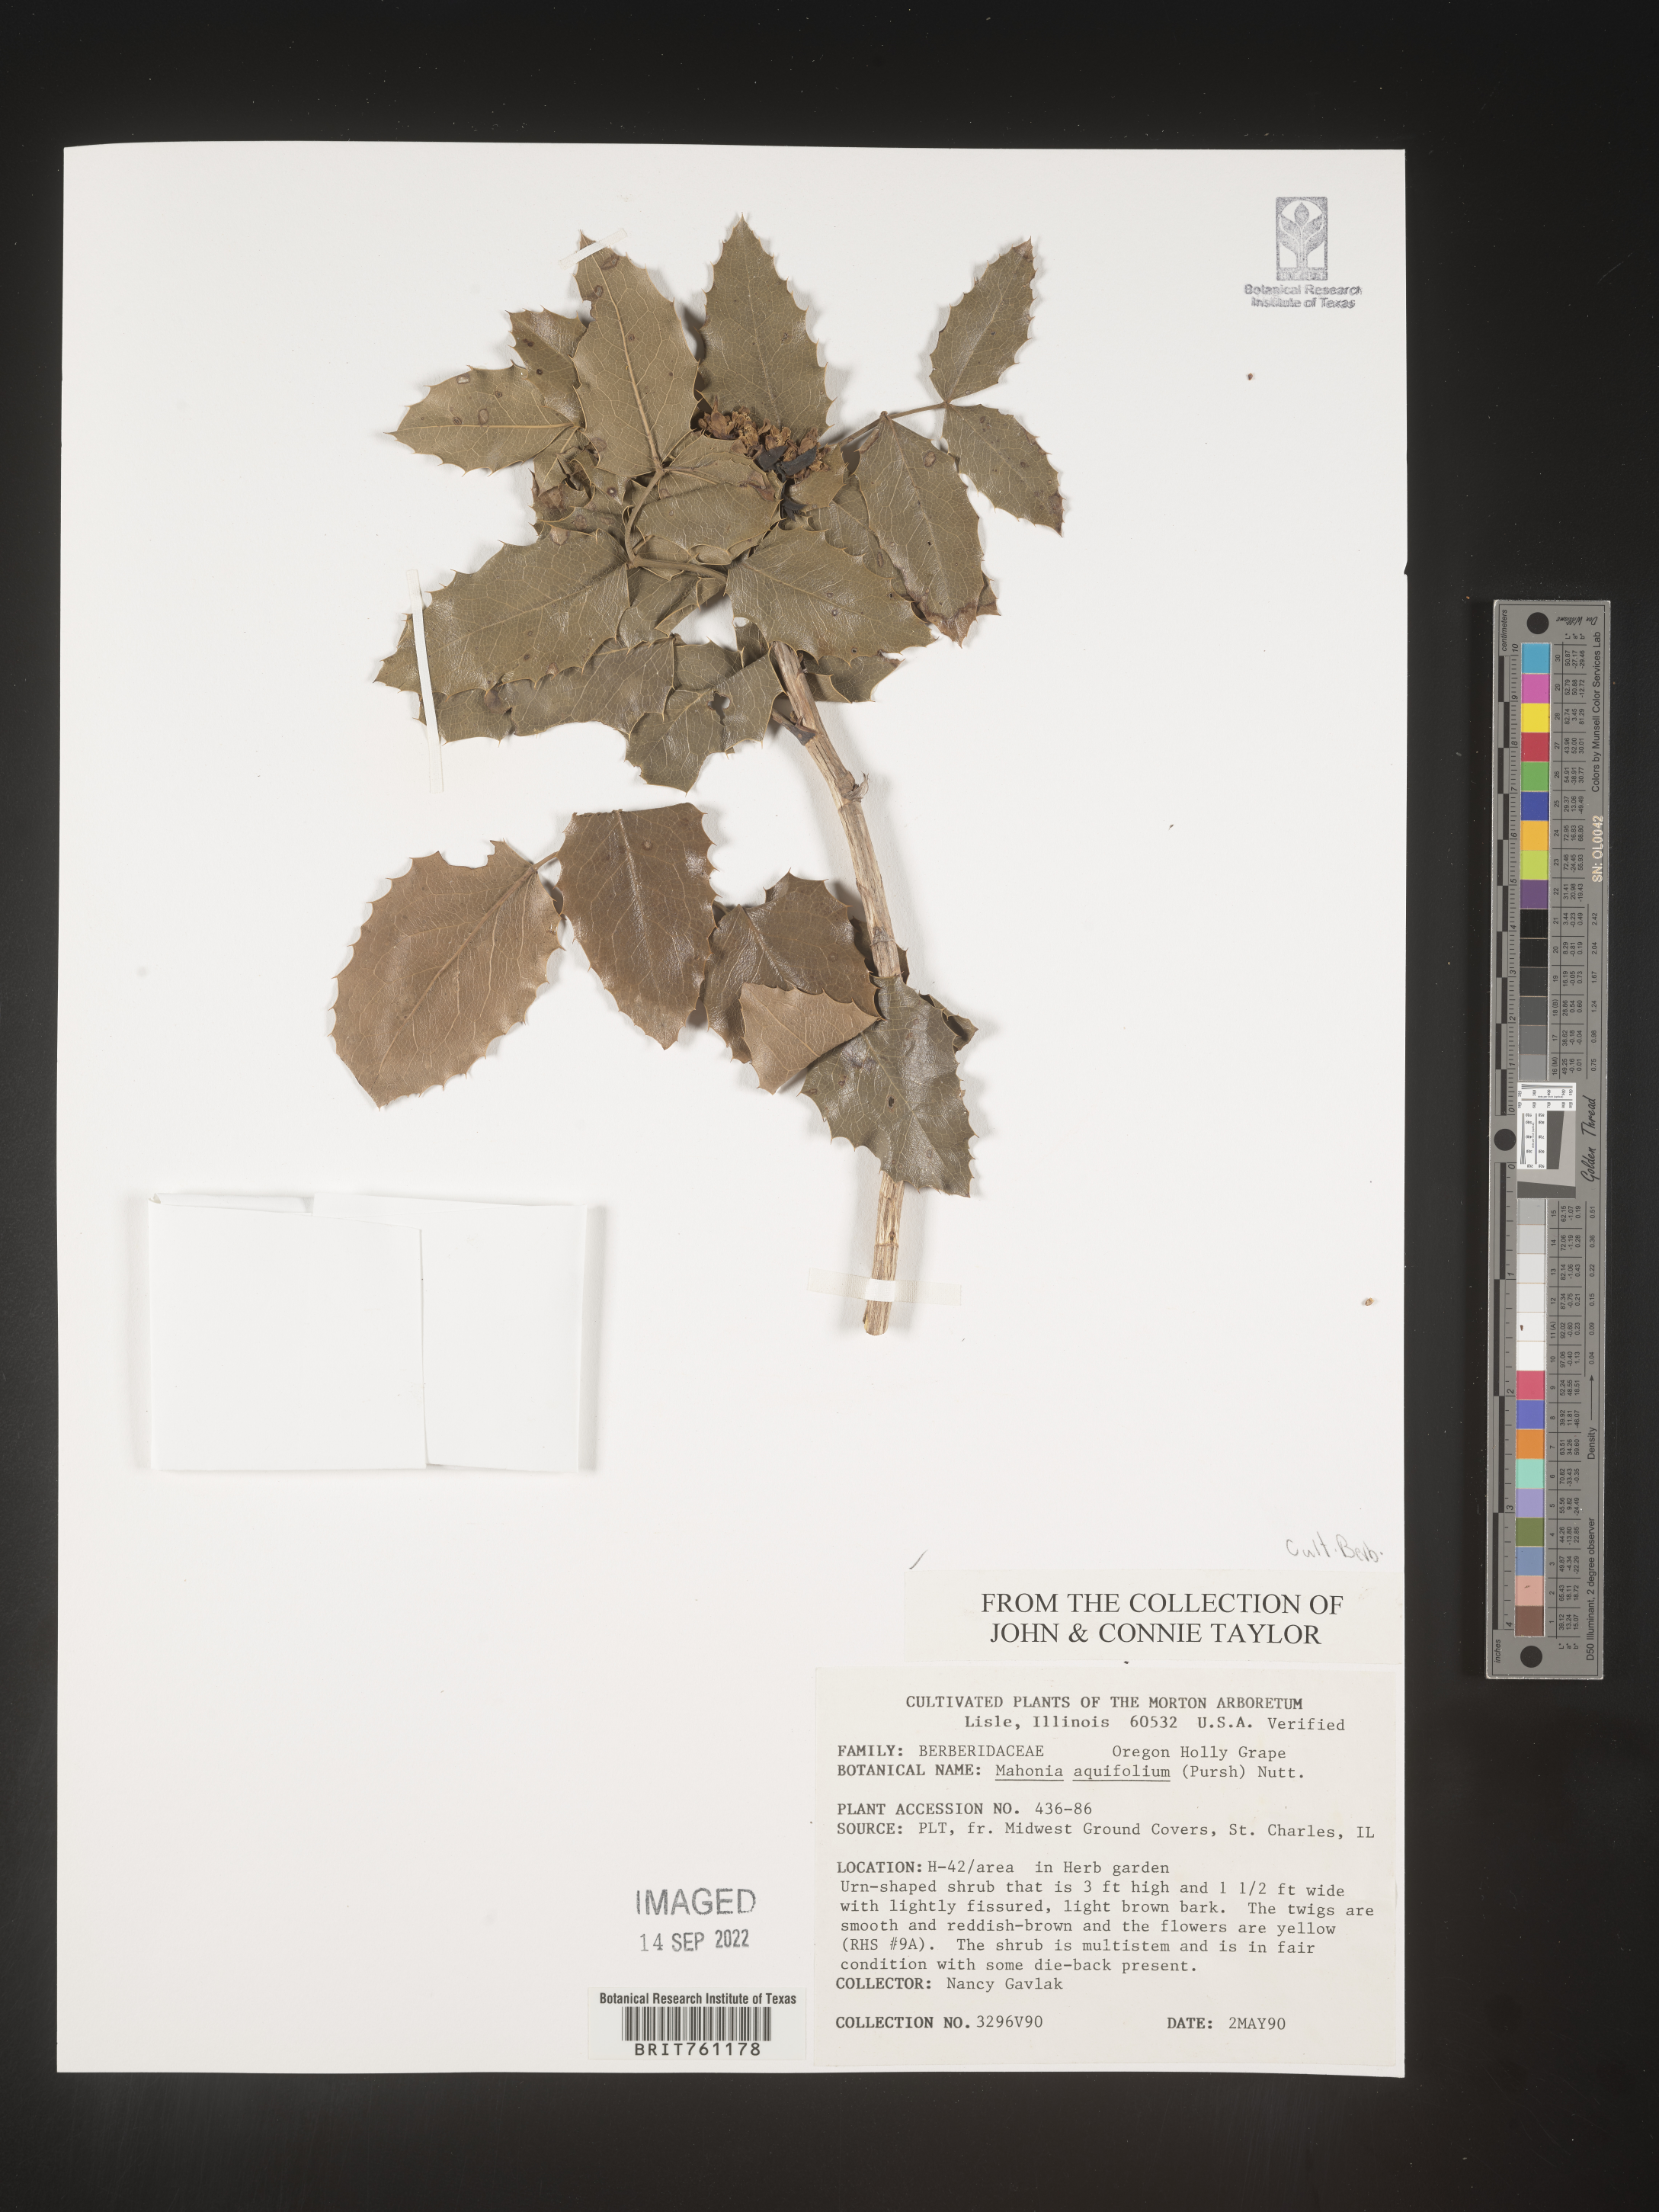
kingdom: Plantae
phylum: Tracheophyta
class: Magnoliopsida
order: Ranunculales
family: Berberidaceae
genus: Mahonia
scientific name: Mahonia
